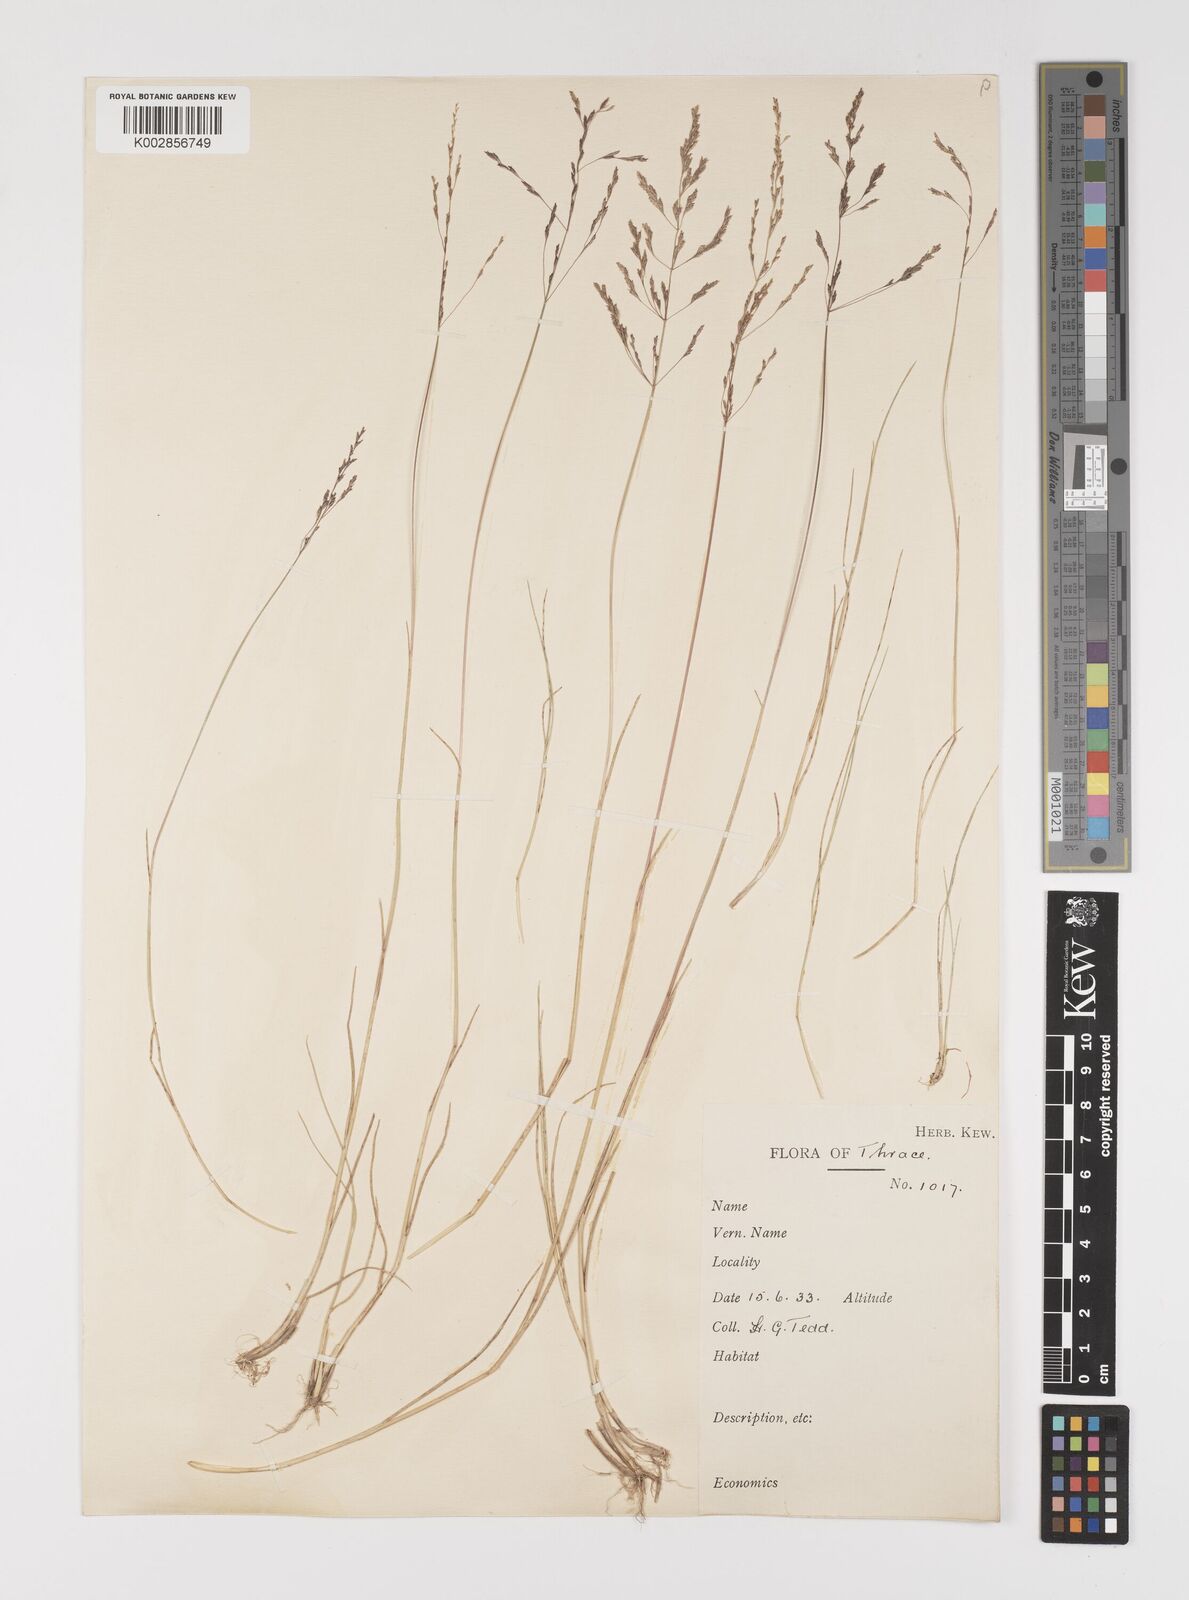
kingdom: Plantae
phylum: Tracheophyta
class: Liliopsida
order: Poales
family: Poaceae
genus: Puccinellia
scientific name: Puccinellia
